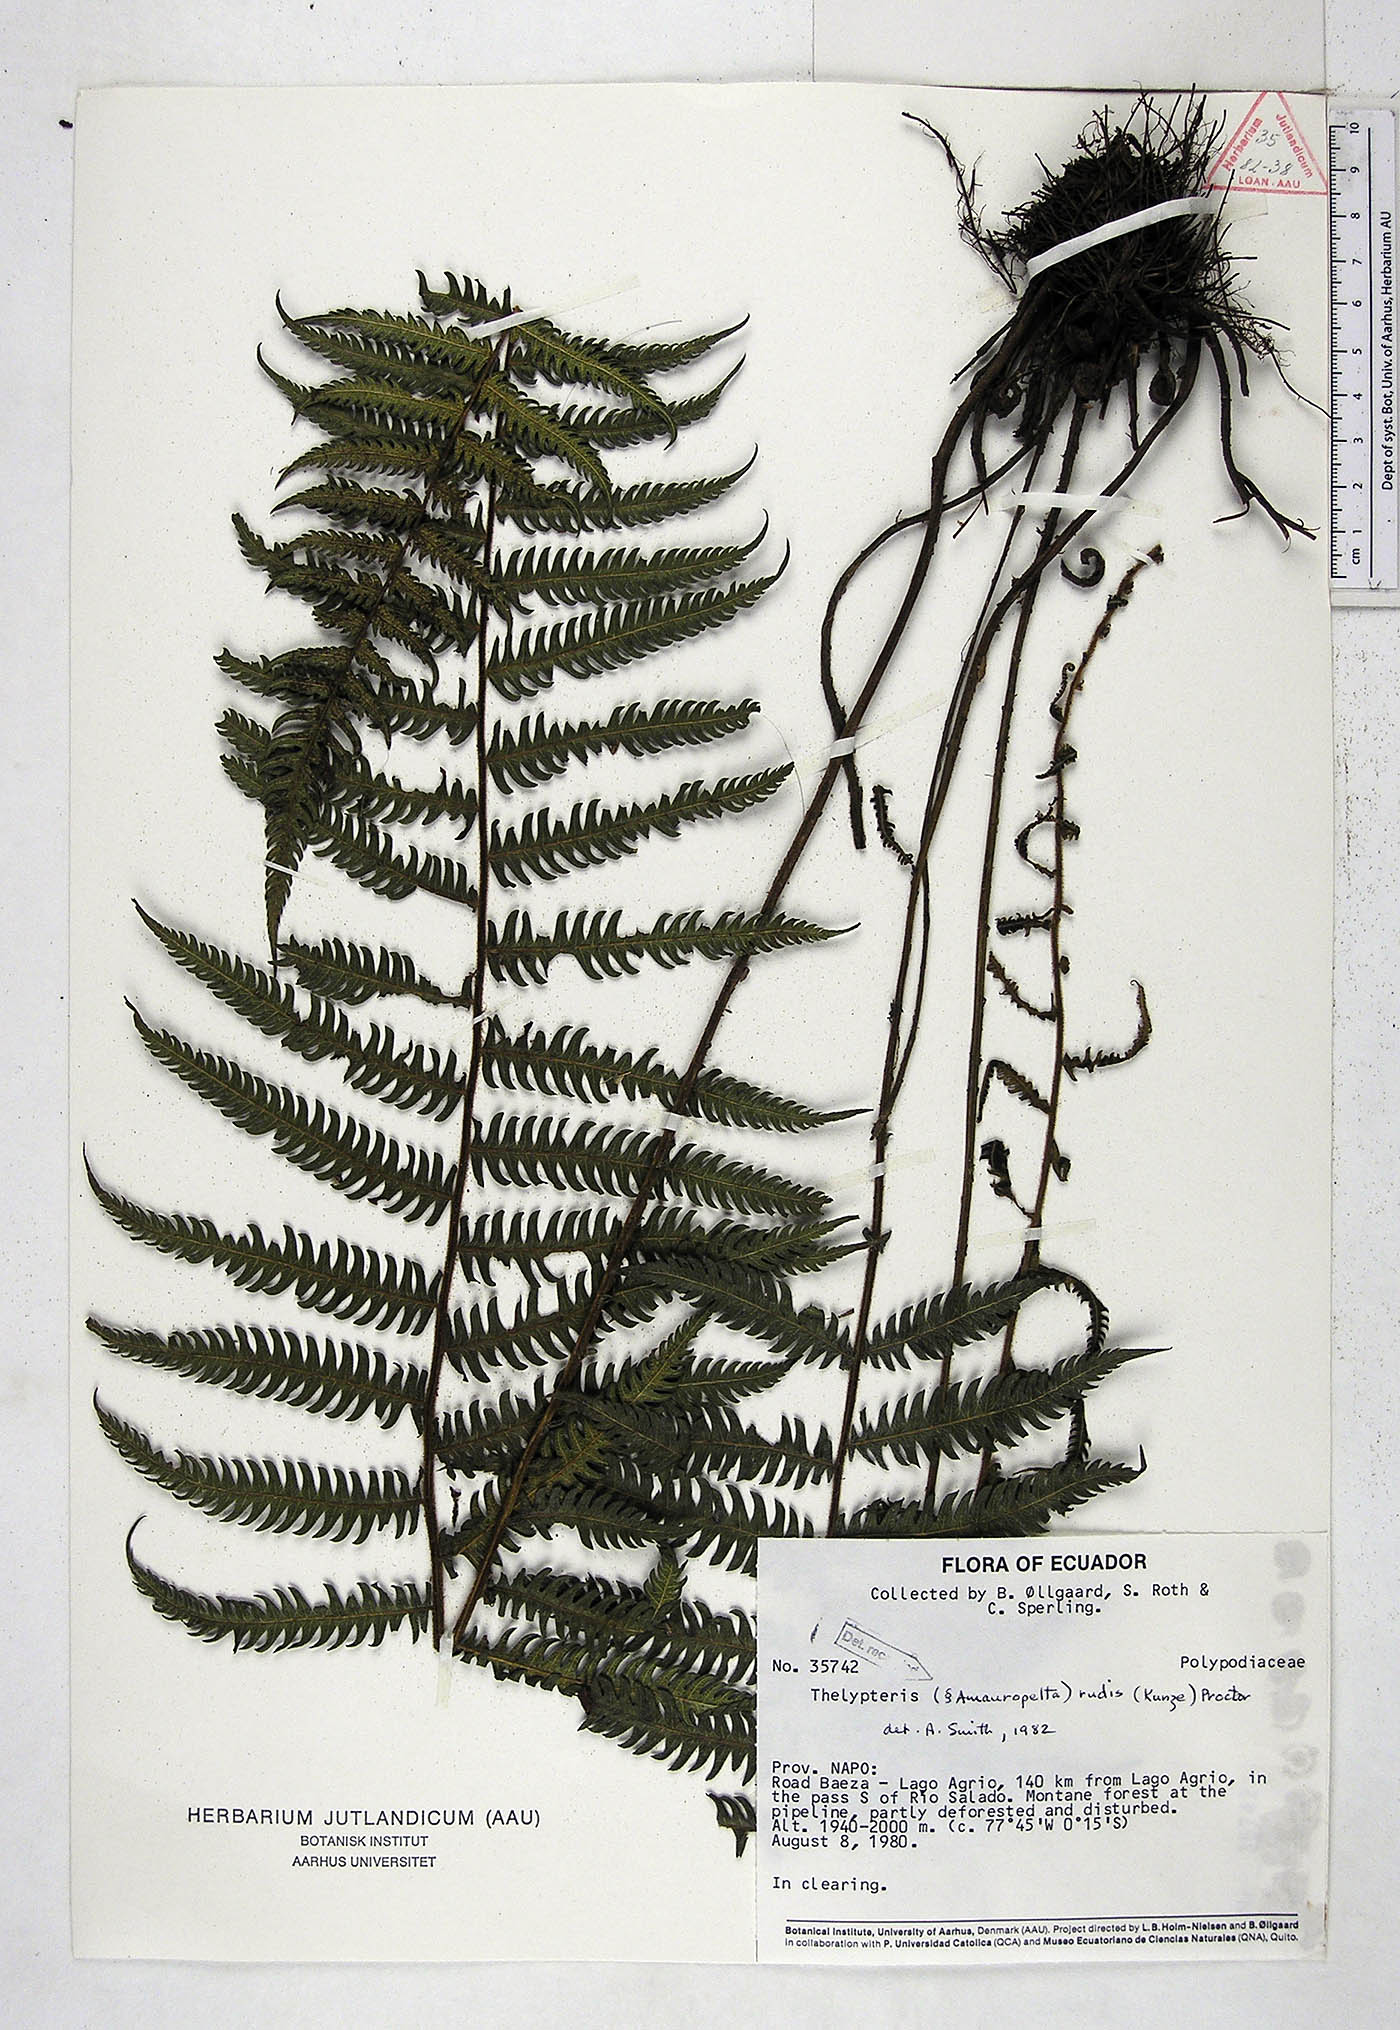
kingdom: Plantae
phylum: Tracheophyta
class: Polypodiopsida
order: Polypodiales
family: Thelypteridaceae
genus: Amauropelta
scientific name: Amauropelta rudis
